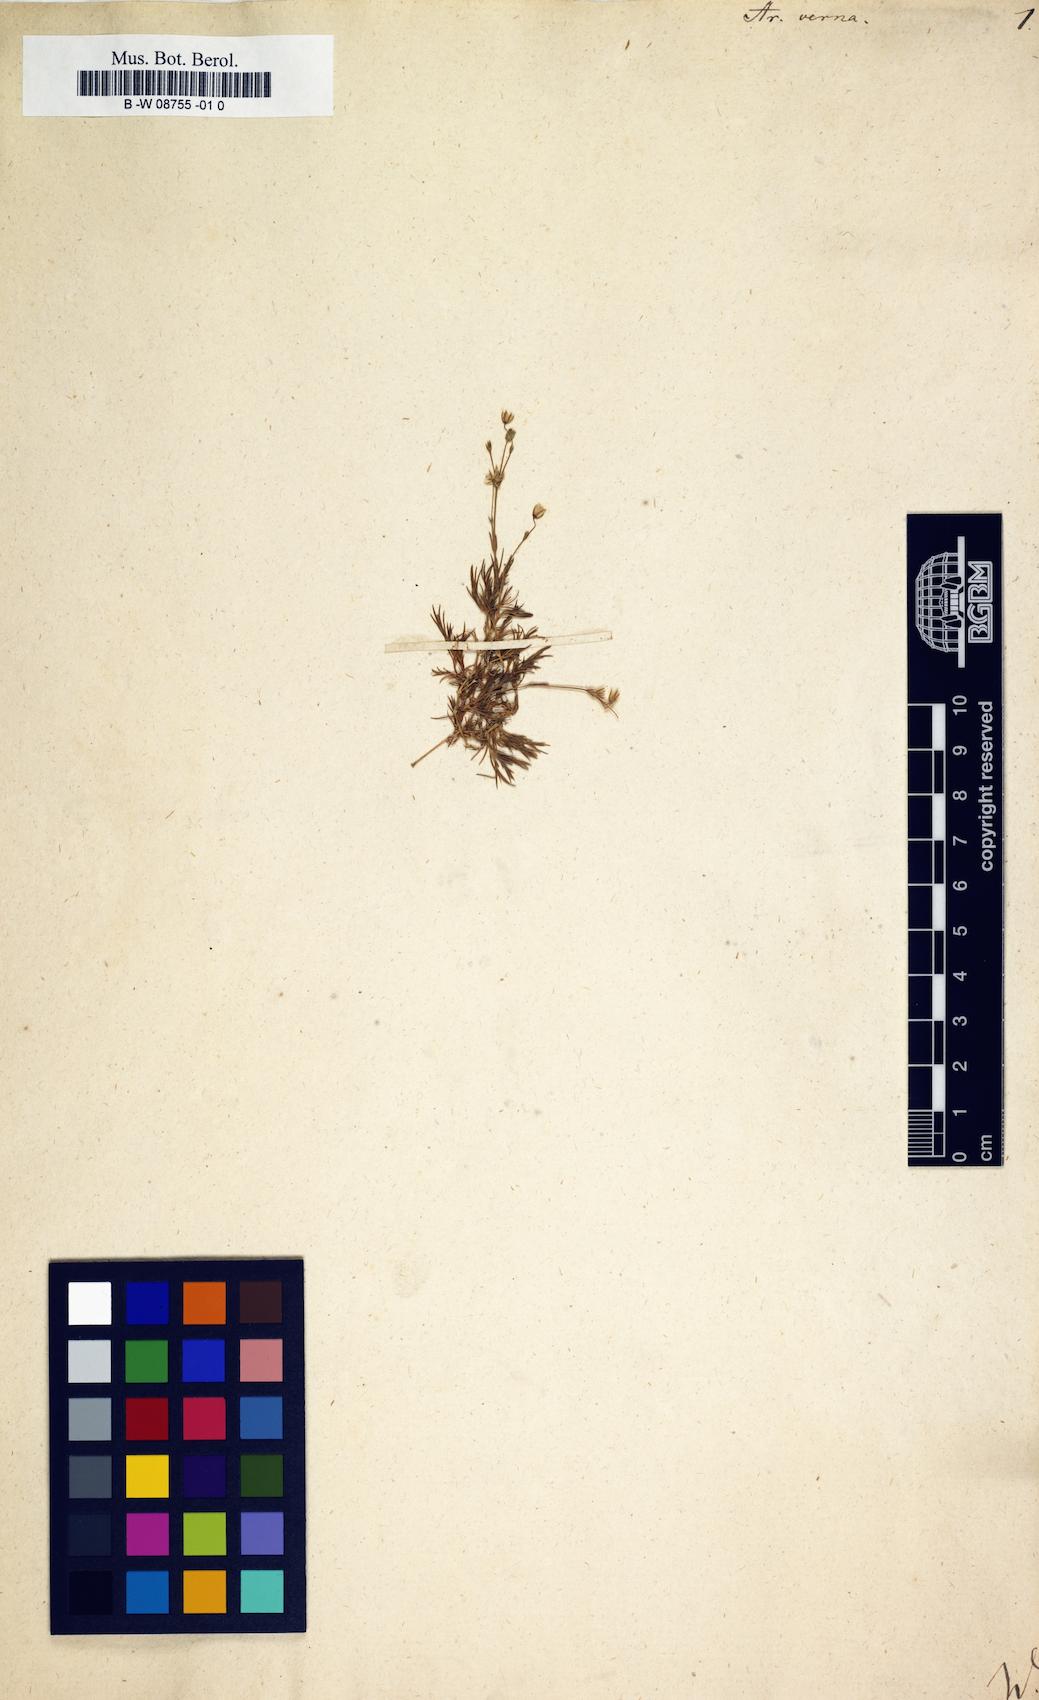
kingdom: Plantae
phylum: Tracheophyta
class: Magnoliopsida
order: Caryophyllales
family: Caryophyllaceae
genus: Sabulina
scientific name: Sabulina verna
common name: Spring sandwort
